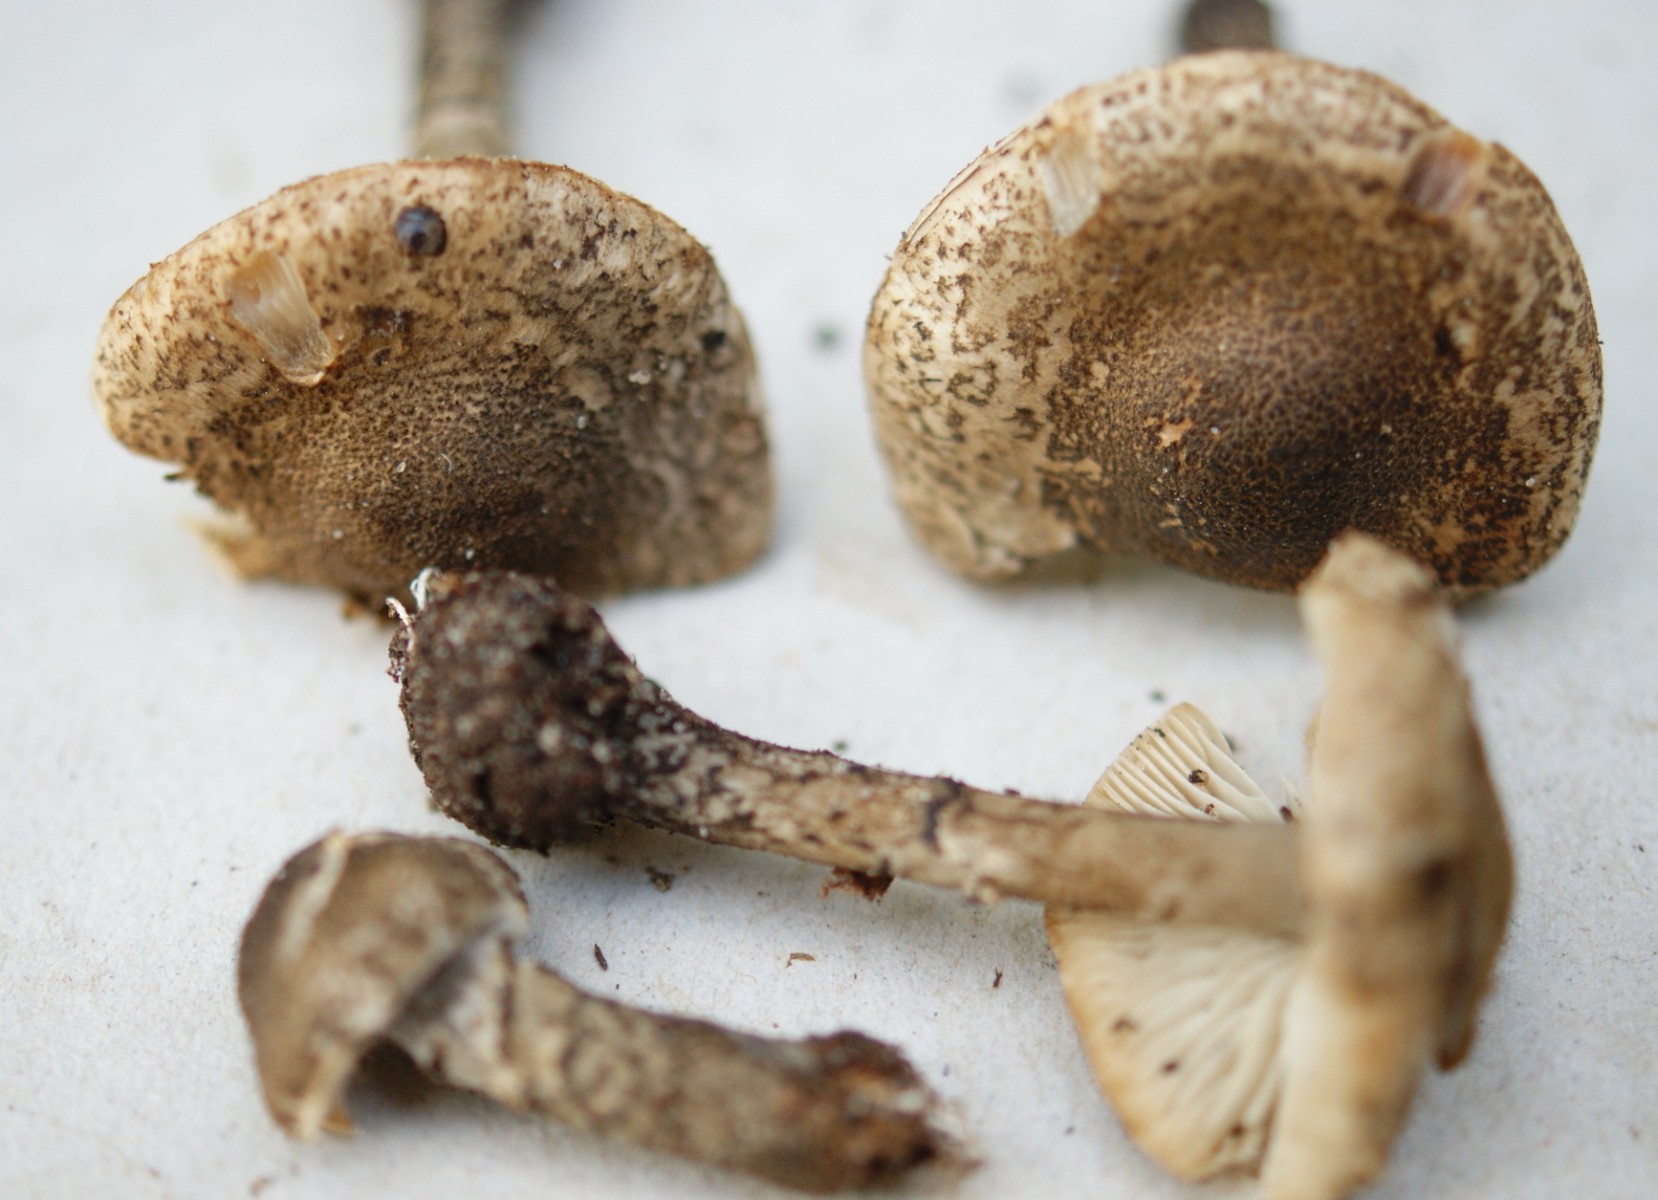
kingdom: Fungi
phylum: Basidiomycota
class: Agaricomycetes
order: Agaricales
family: Agaricaceae
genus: Lepiota
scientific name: Lepiota griseovirens
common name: grågrøn parasolhat
